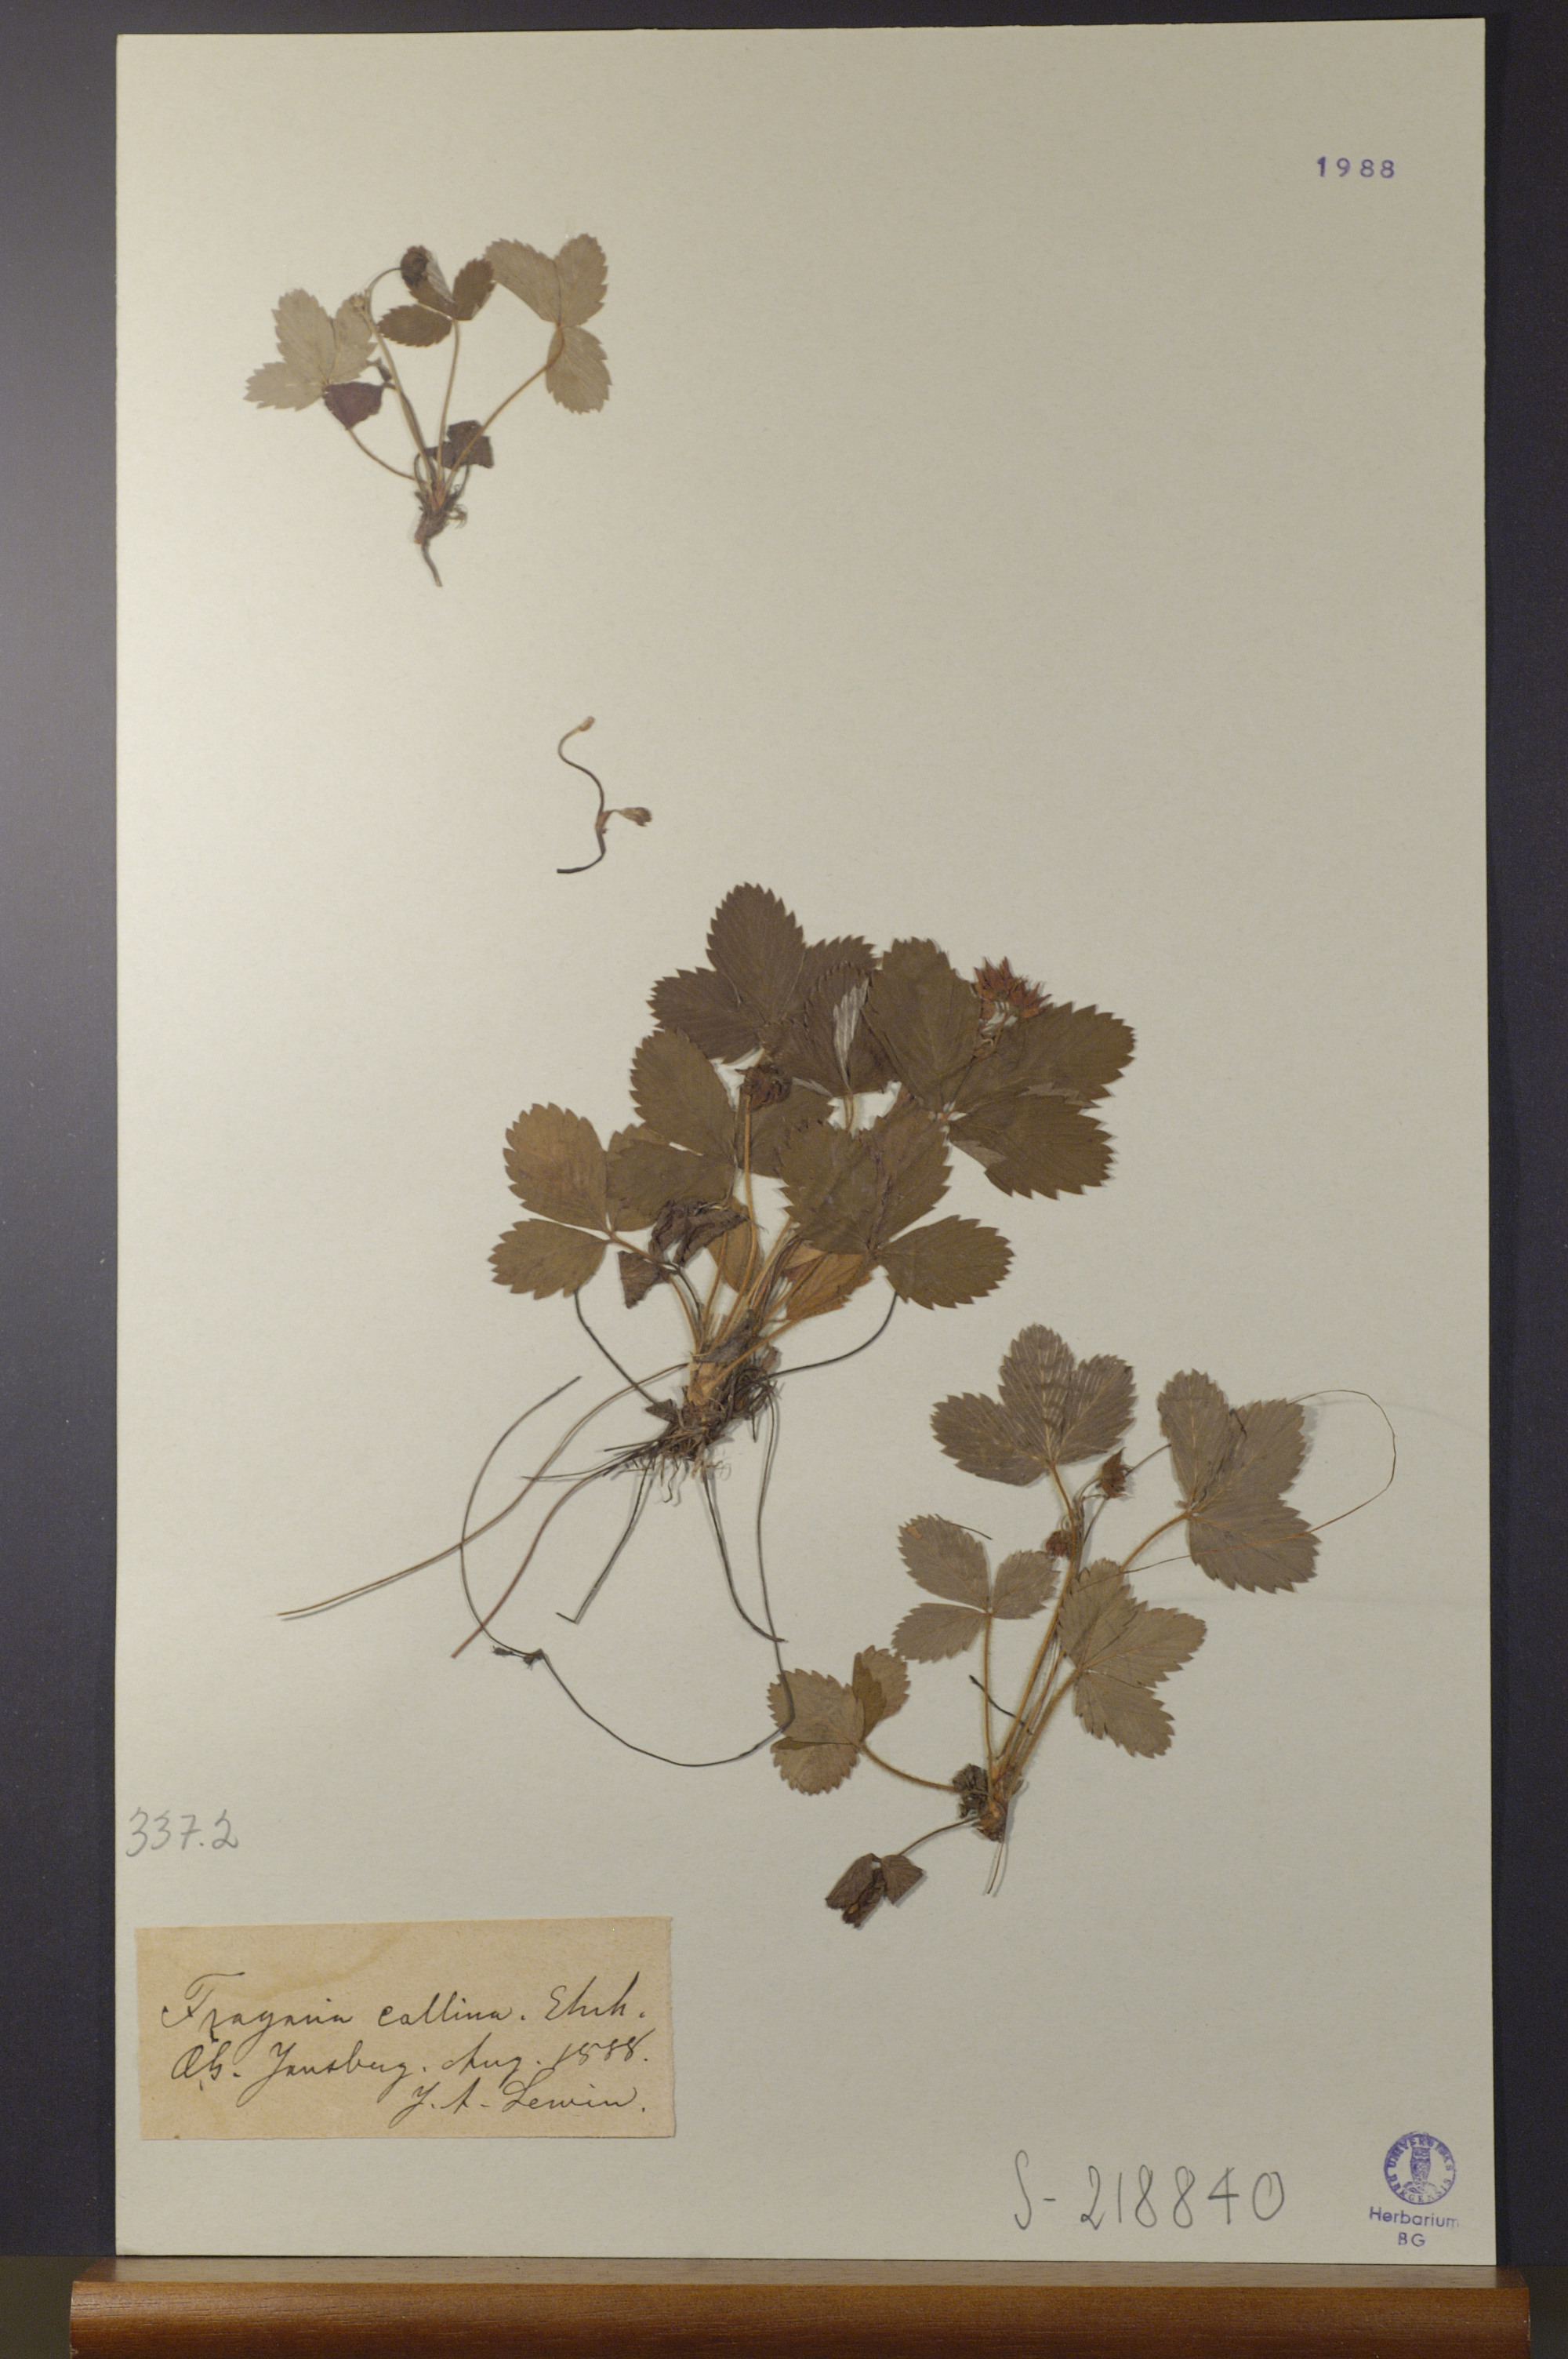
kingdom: Plantae
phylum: Tracheophyta
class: Magnoliopsida
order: Rosales
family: Rosaceae
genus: Fragaria
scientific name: Fragaria viridis
